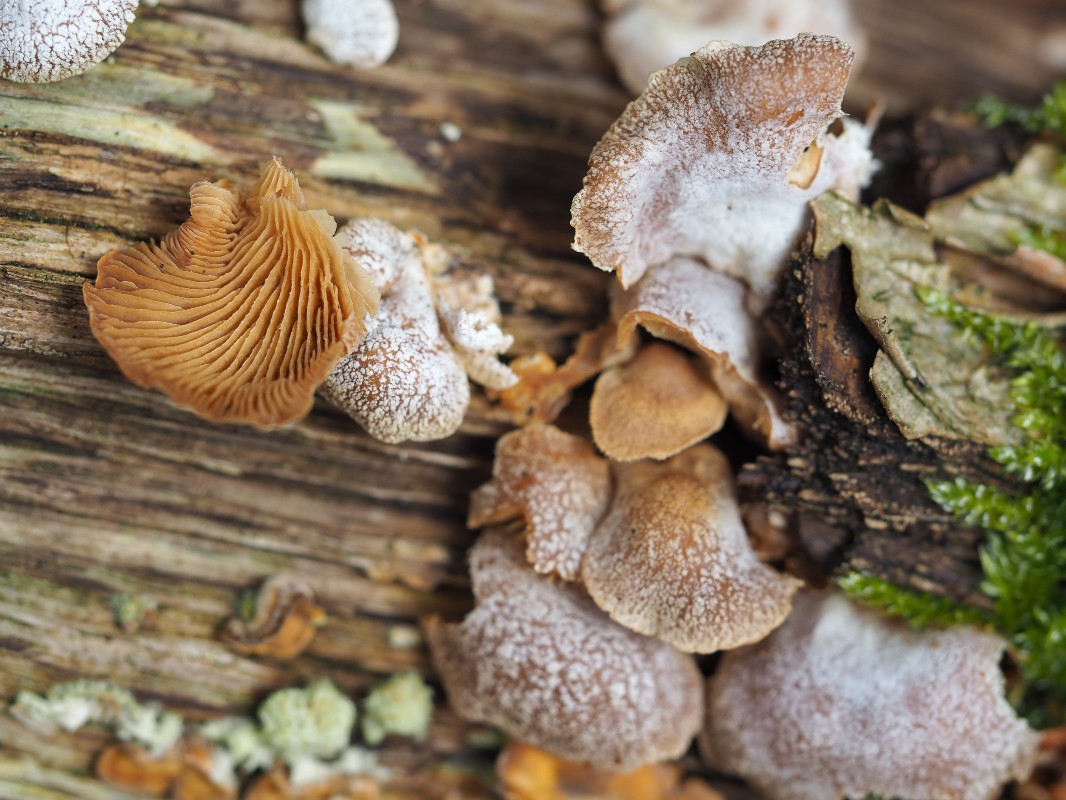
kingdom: Fungi
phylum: Basidiomycota
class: Agaricomycetes
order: Agaricales
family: Mycenaceae
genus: Panellus
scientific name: Panellus stipticus
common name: kliddet epaulethat
